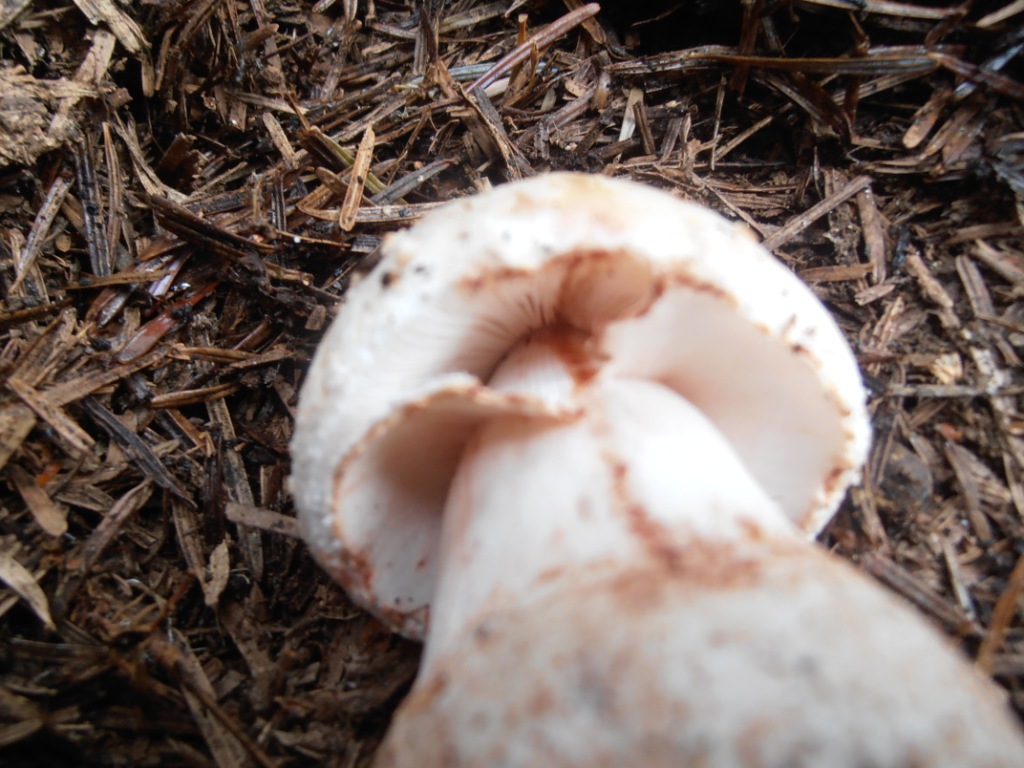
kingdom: Fungi
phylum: Basidiomycota
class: Agaricomycetes
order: Agaricales
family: Amanitaceae
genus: Amanita
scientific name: Amanita rubescens
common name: rødmende fluesvamp
